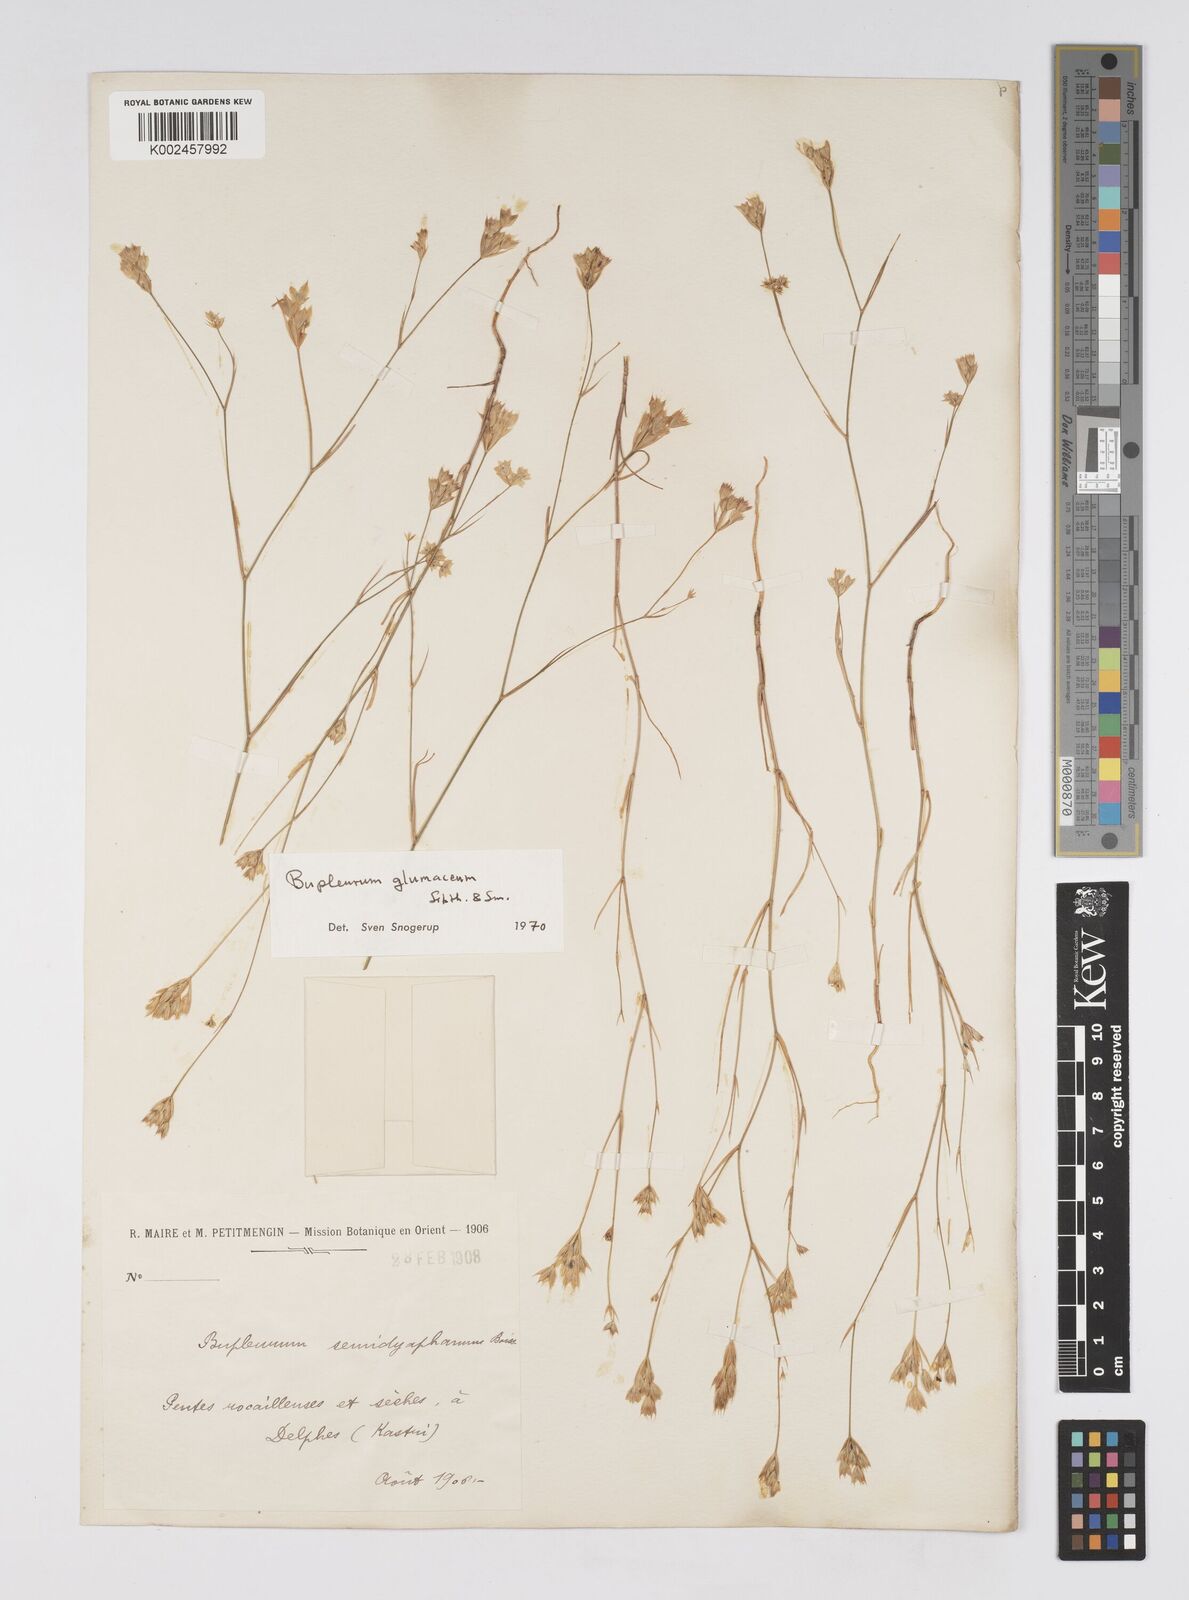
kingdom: Plantae
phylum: Tracheophyta
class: Magnoliopsida
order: Apiales
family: Apiaceae
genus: Bupleurum
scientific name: Bupleurum glumaceum
